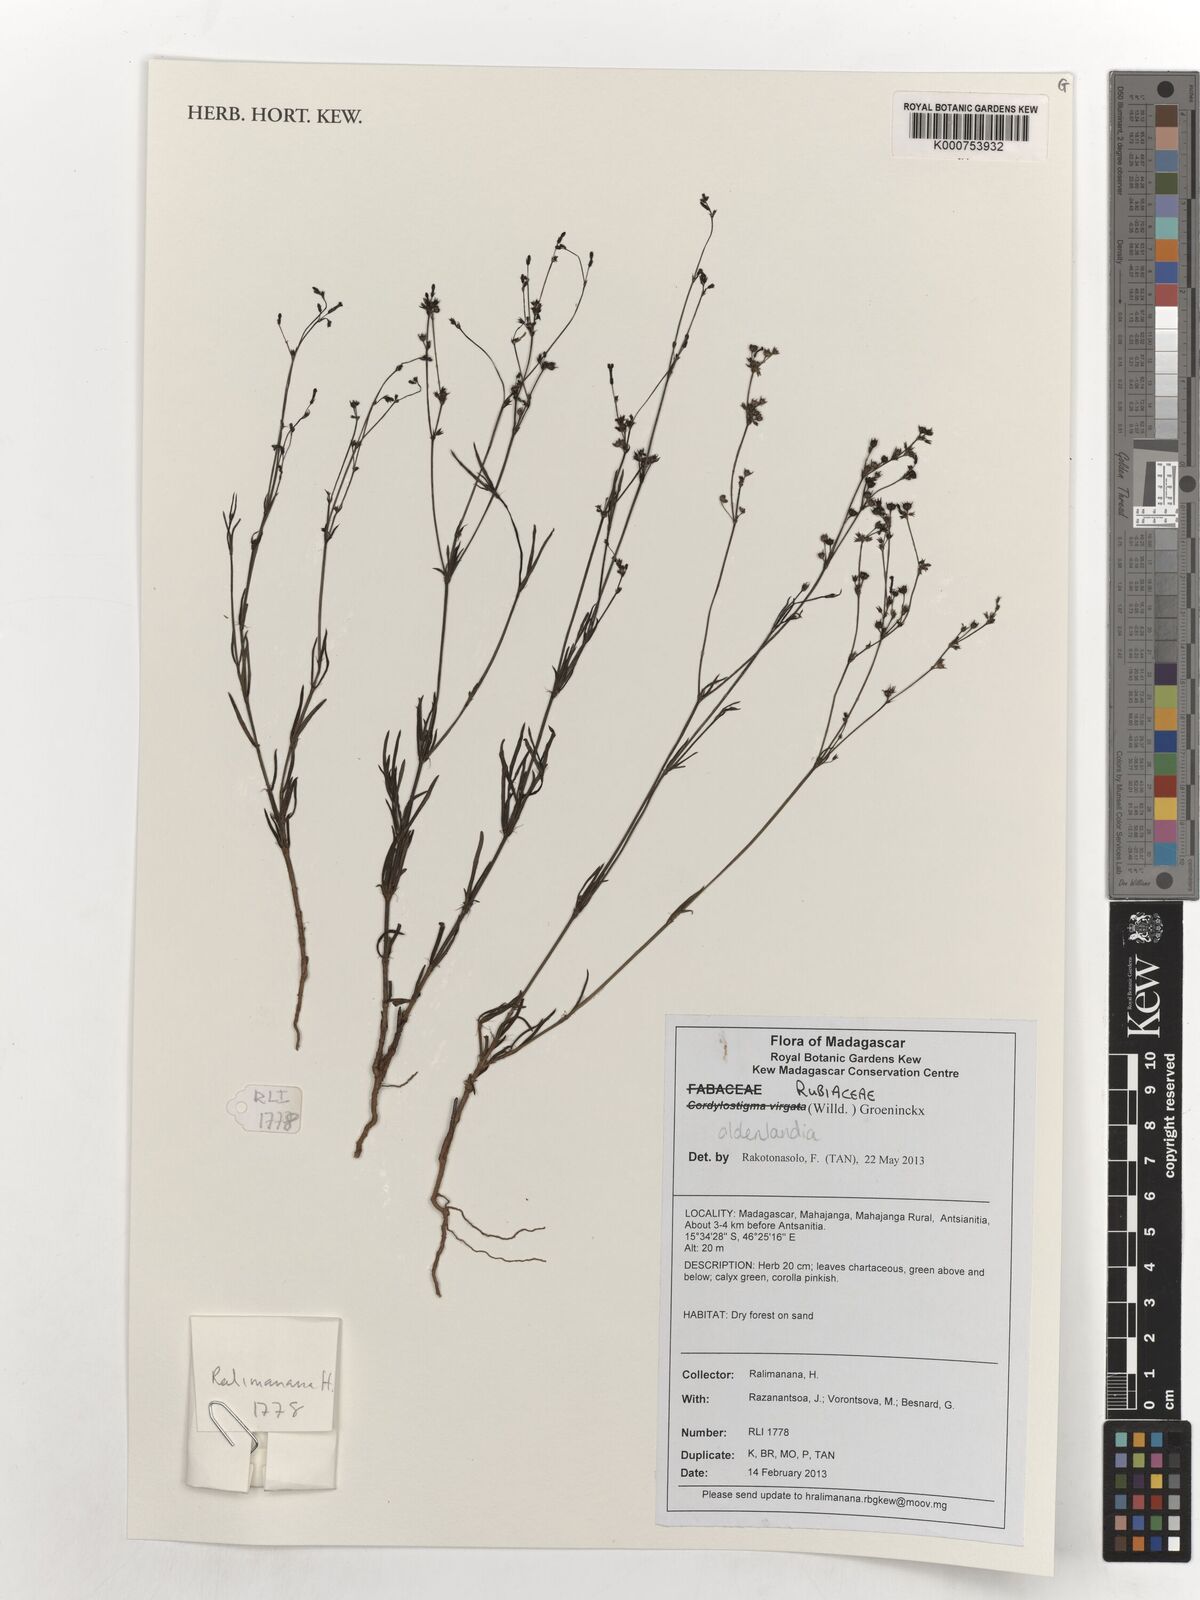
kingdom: Plantae
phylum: Tracheophyta
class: Magnoliopsida
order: Gentianales
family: Rubiaceae
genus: Oldenlandia
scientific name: Oldenlandia
